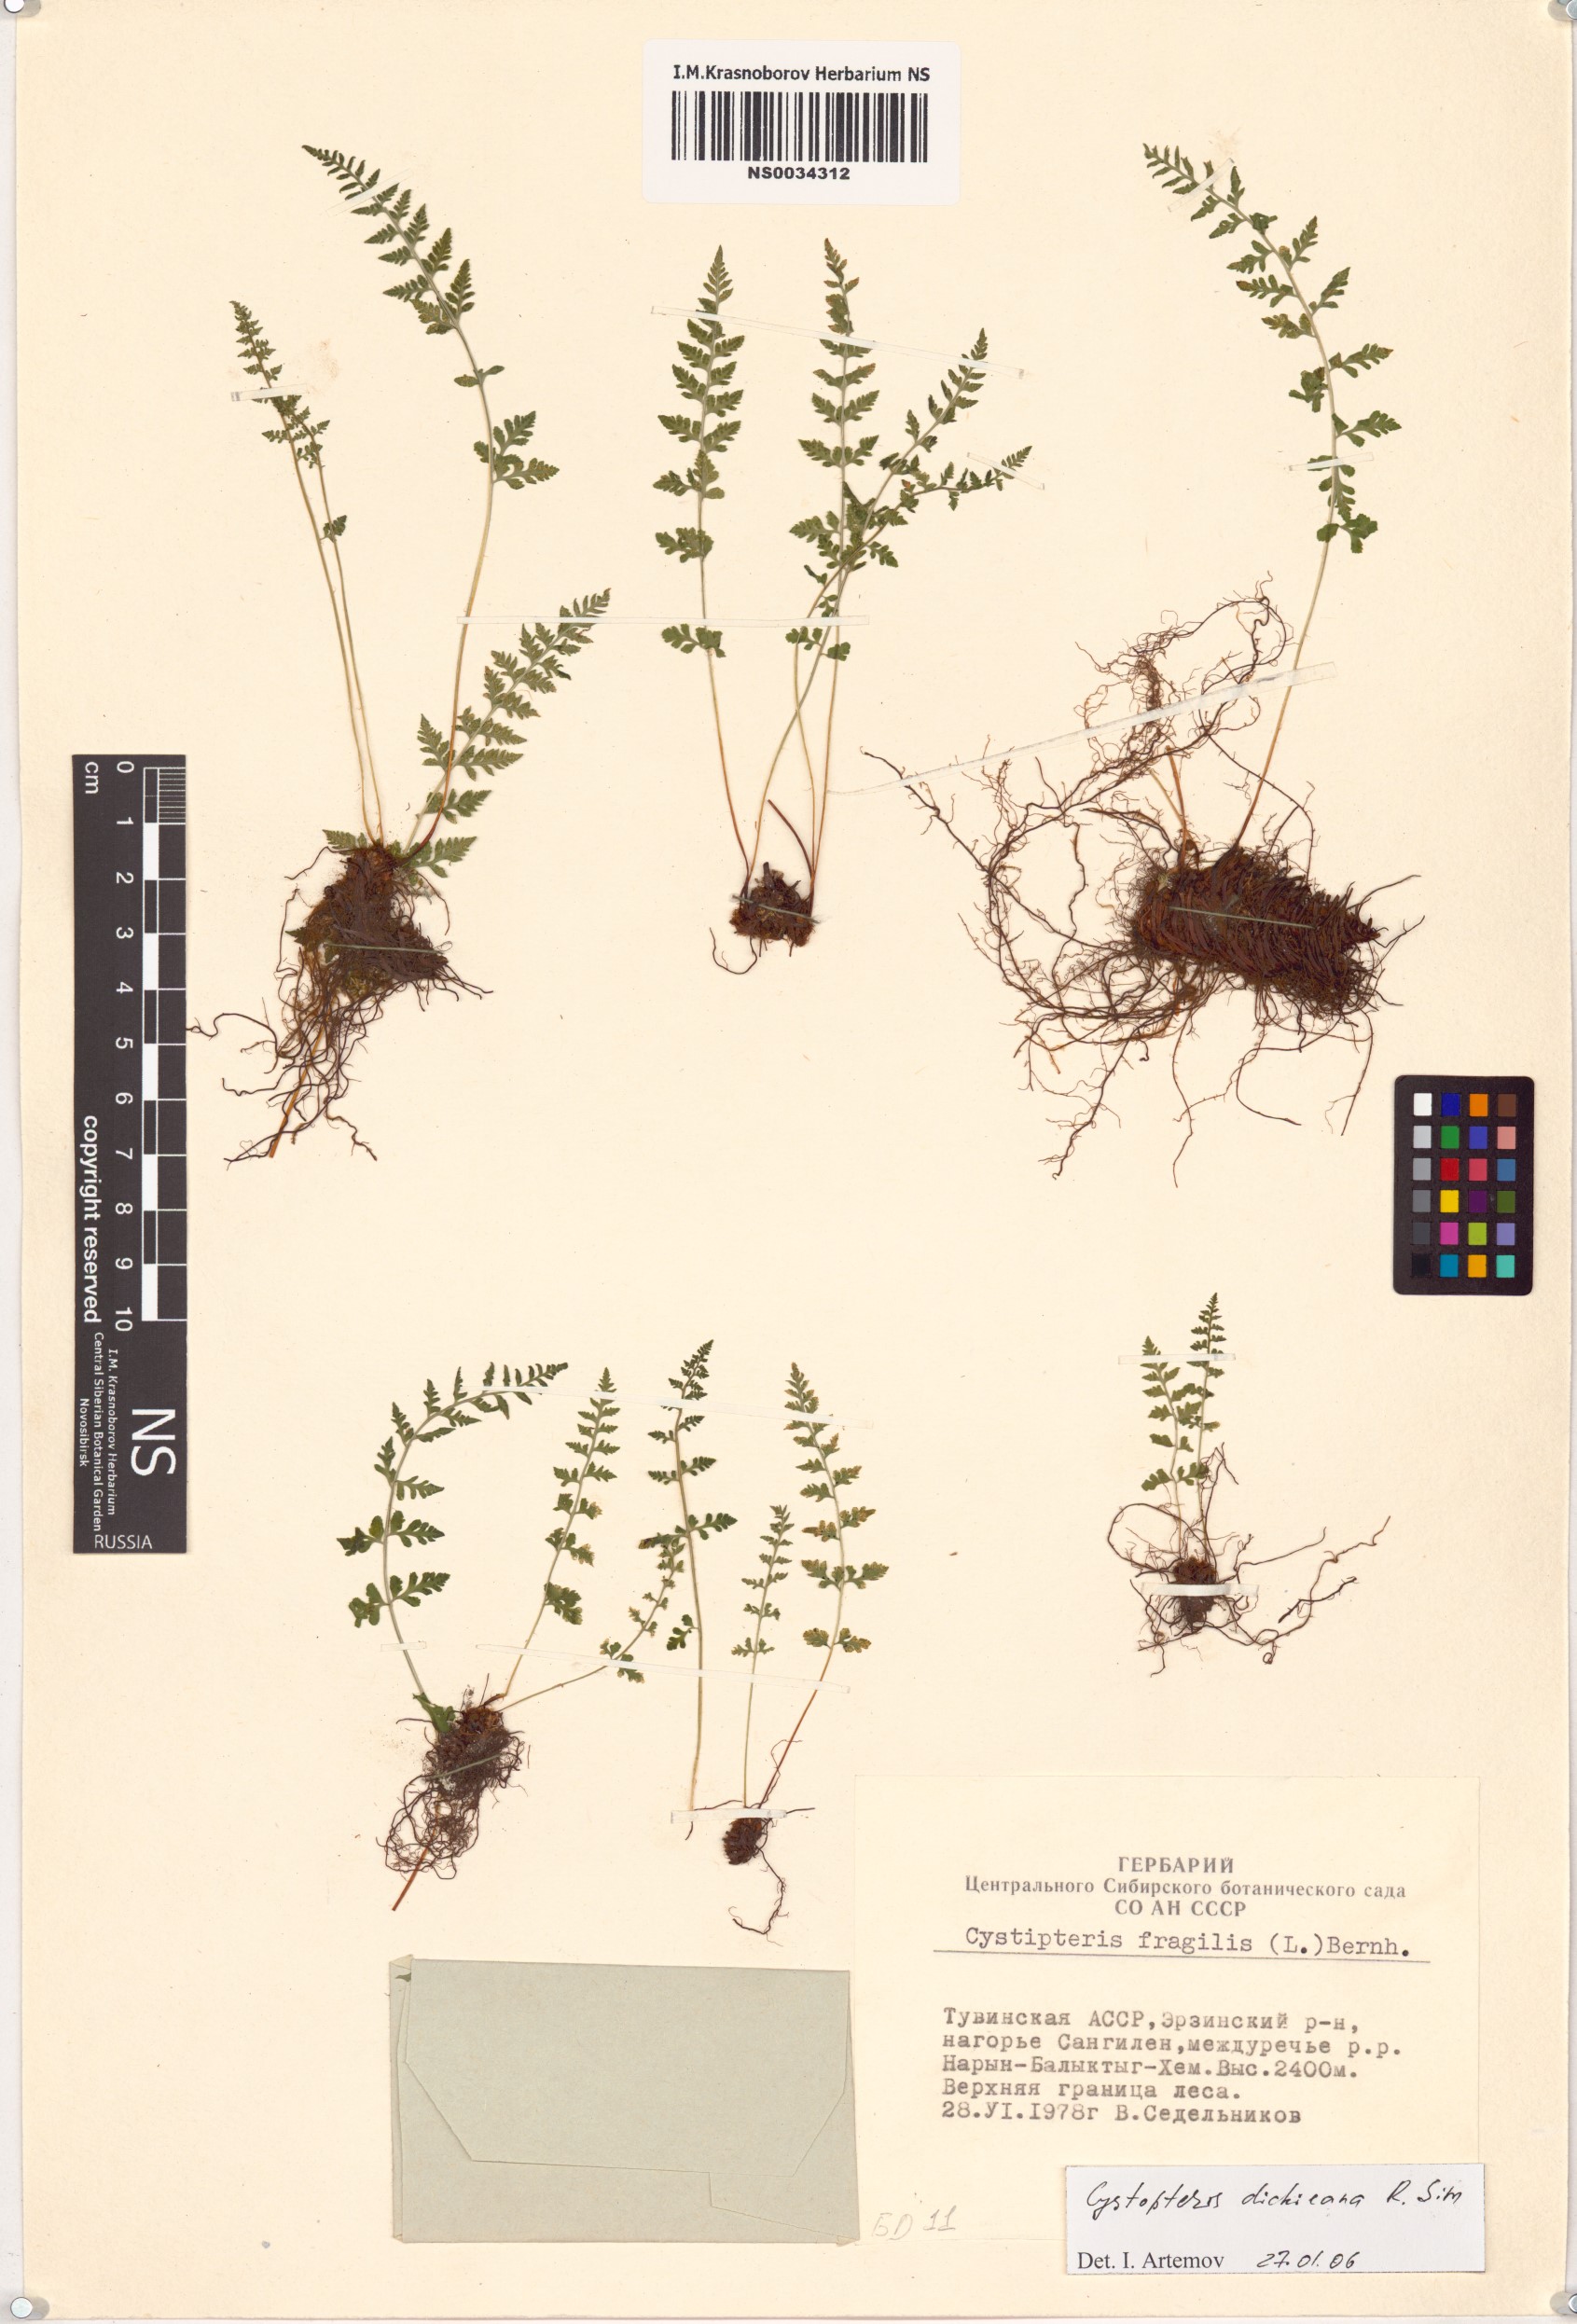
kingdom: Plantae
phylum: Tracheophyta
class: Polypodiopsida
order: Polypodiales
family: Cystopteridaceae
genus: Cystopteris
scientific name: Cystopteris dickieana
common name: Dickie's bladder-fern
